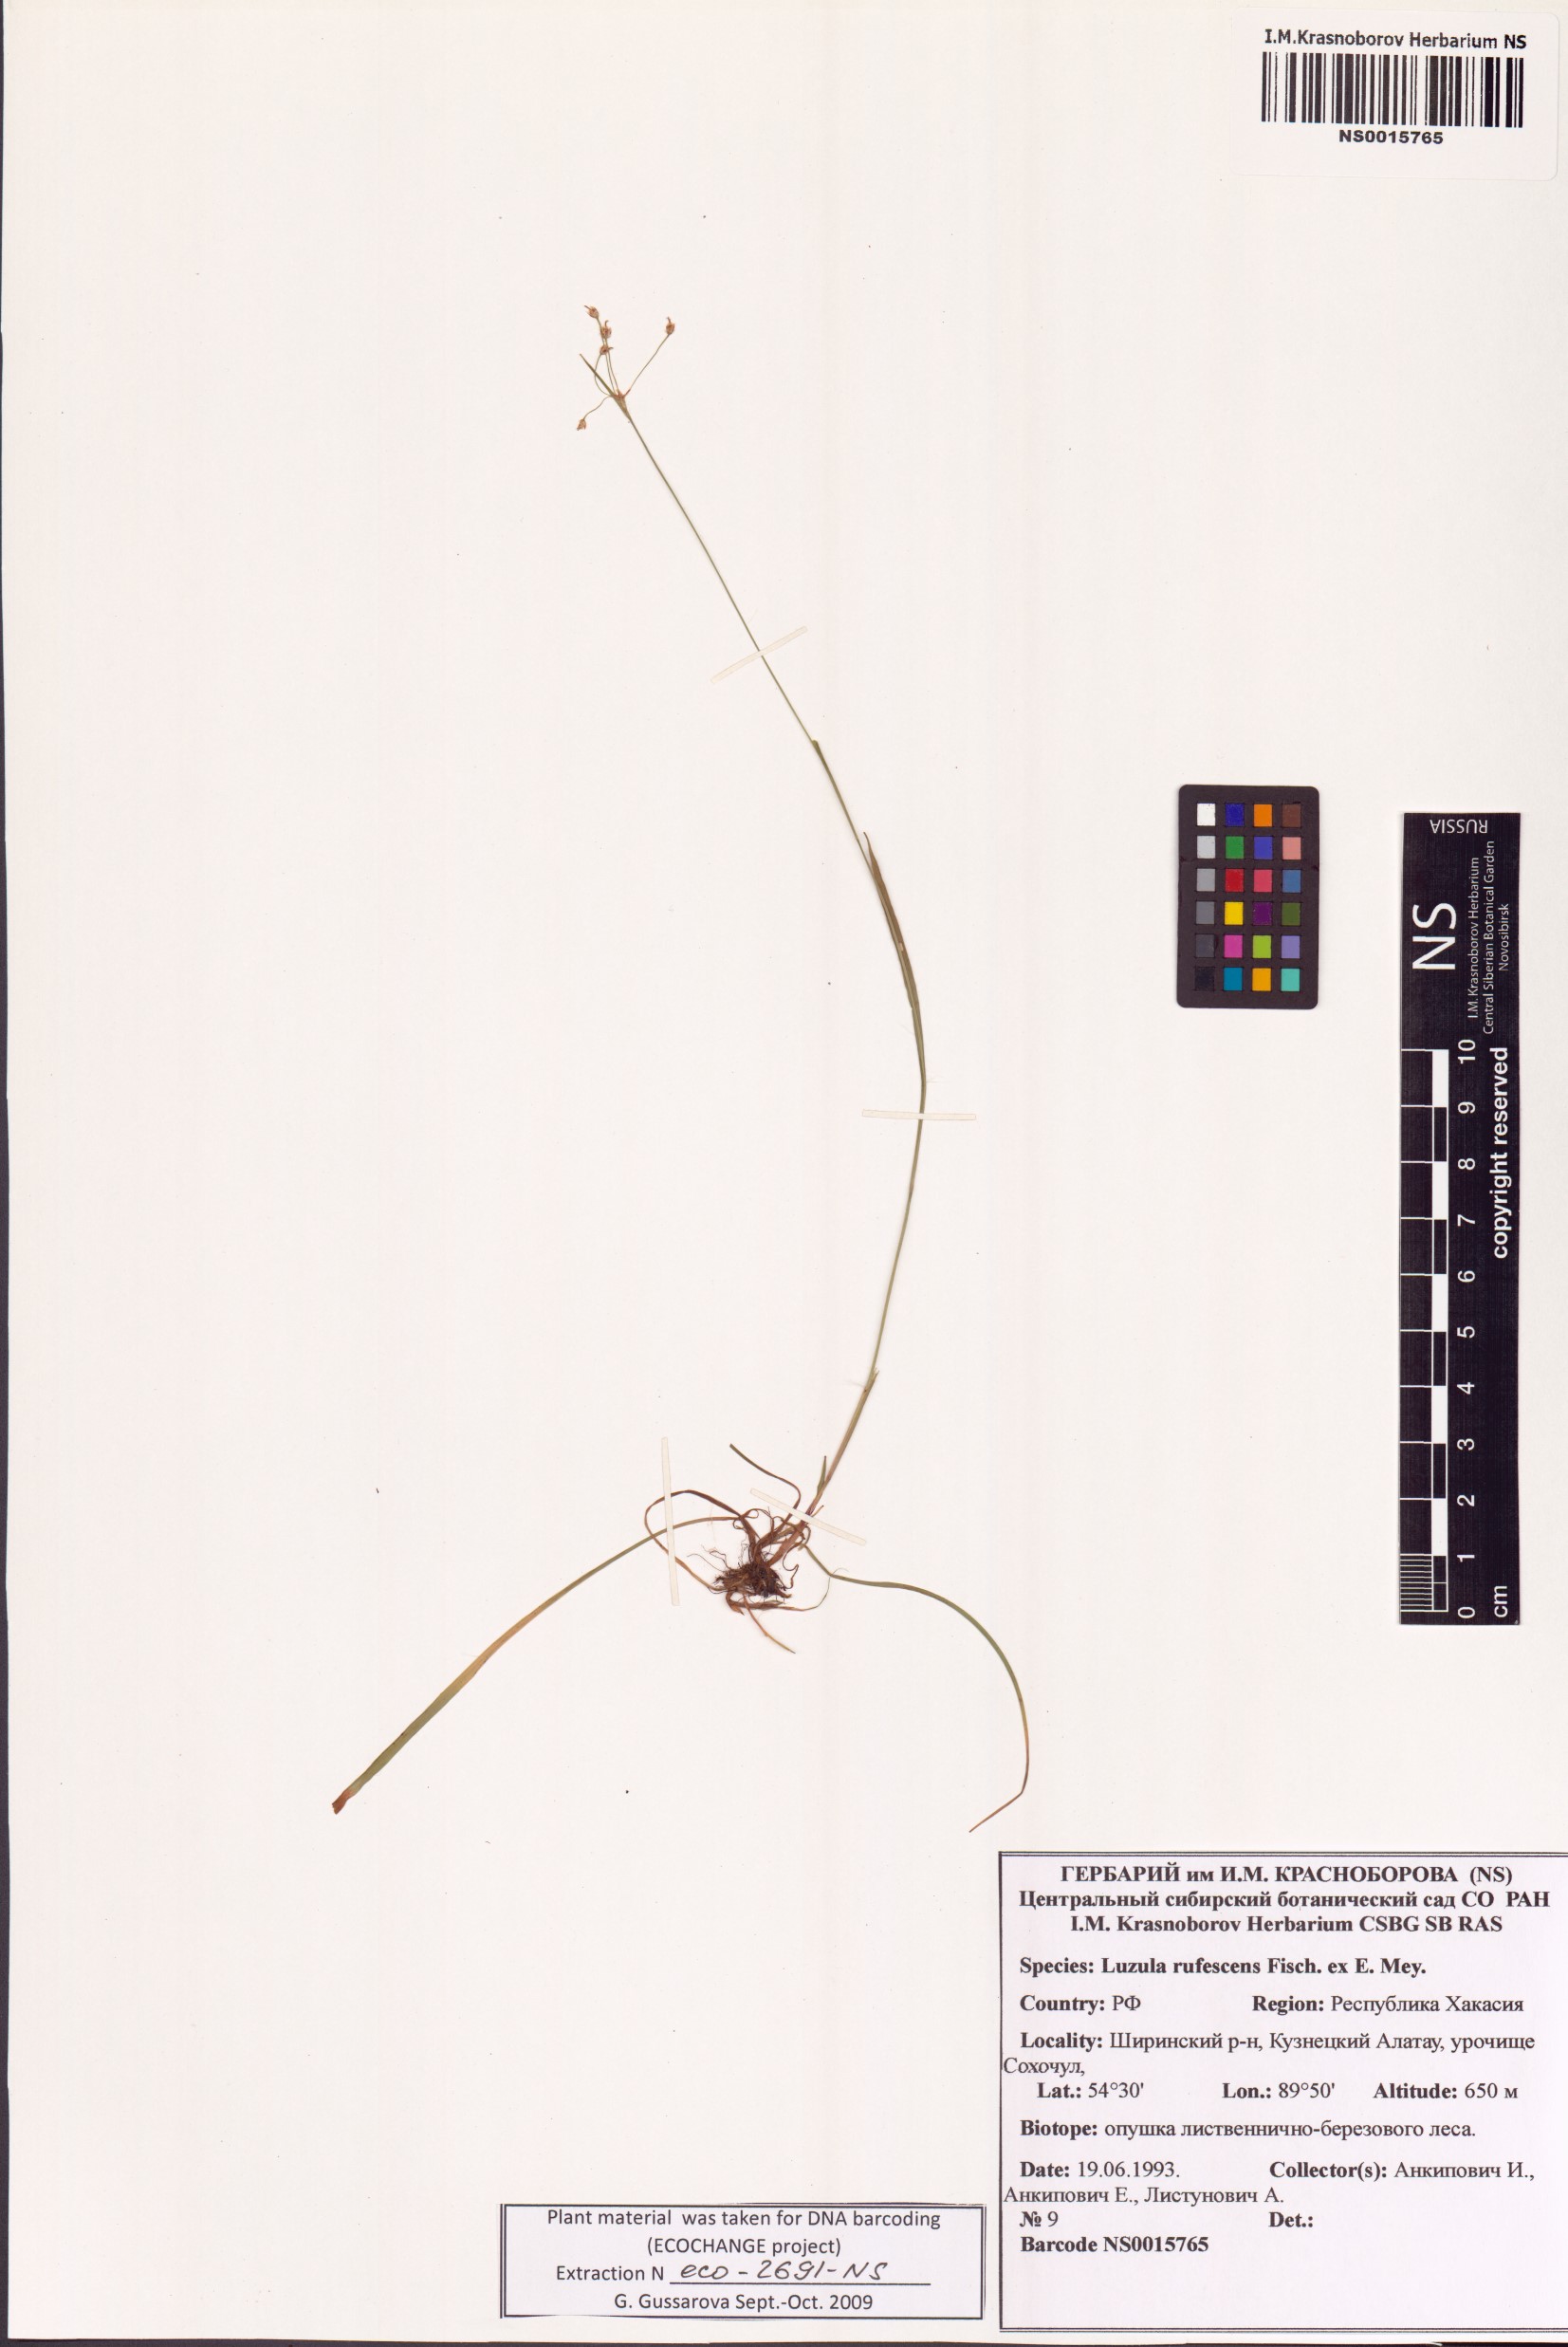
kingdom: Plantae
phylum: Tracheophyta
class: Liliopsida
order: Poales
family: Juncaceae
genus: Luzula
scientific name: Luzula rufescens
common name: Reddish woodrush
